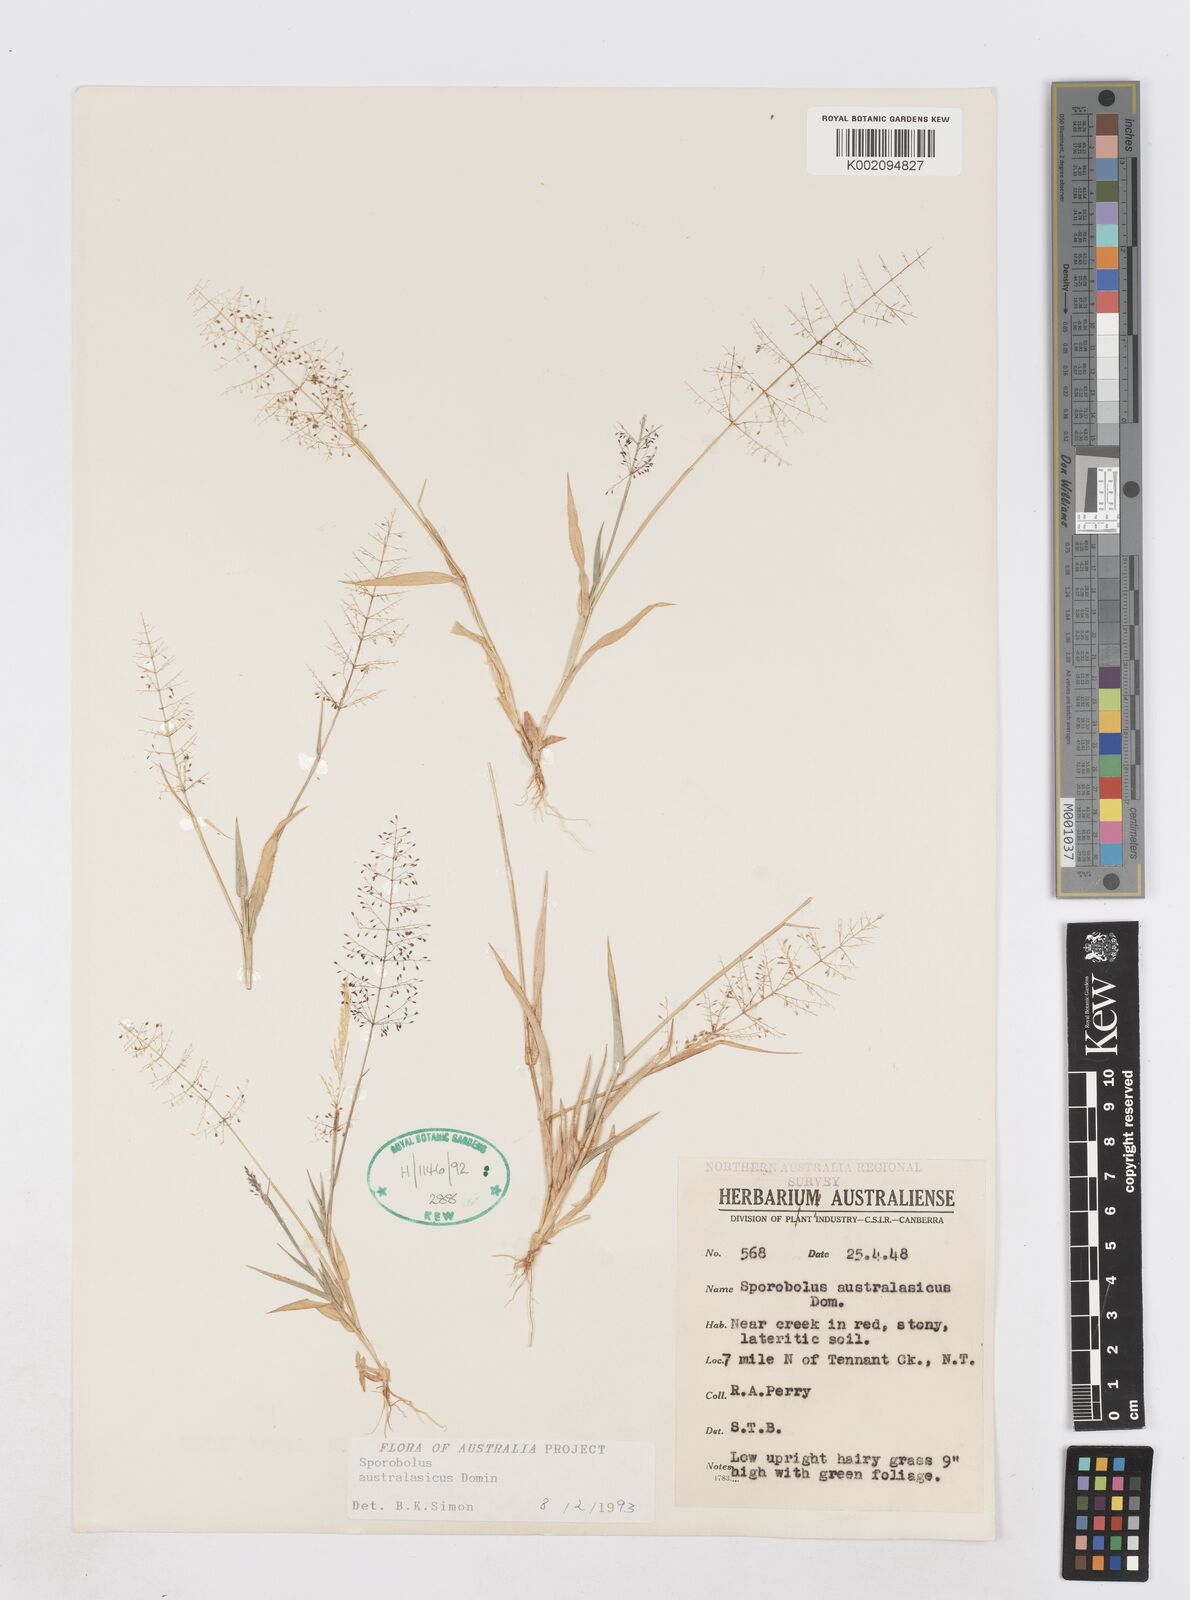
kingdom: Plantae
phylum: Tracheophyta
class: Liliopsida
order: Poales
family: Poaceae
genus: Sporobolus
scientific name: Sporobolus australasicus
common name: Australian dropseed
